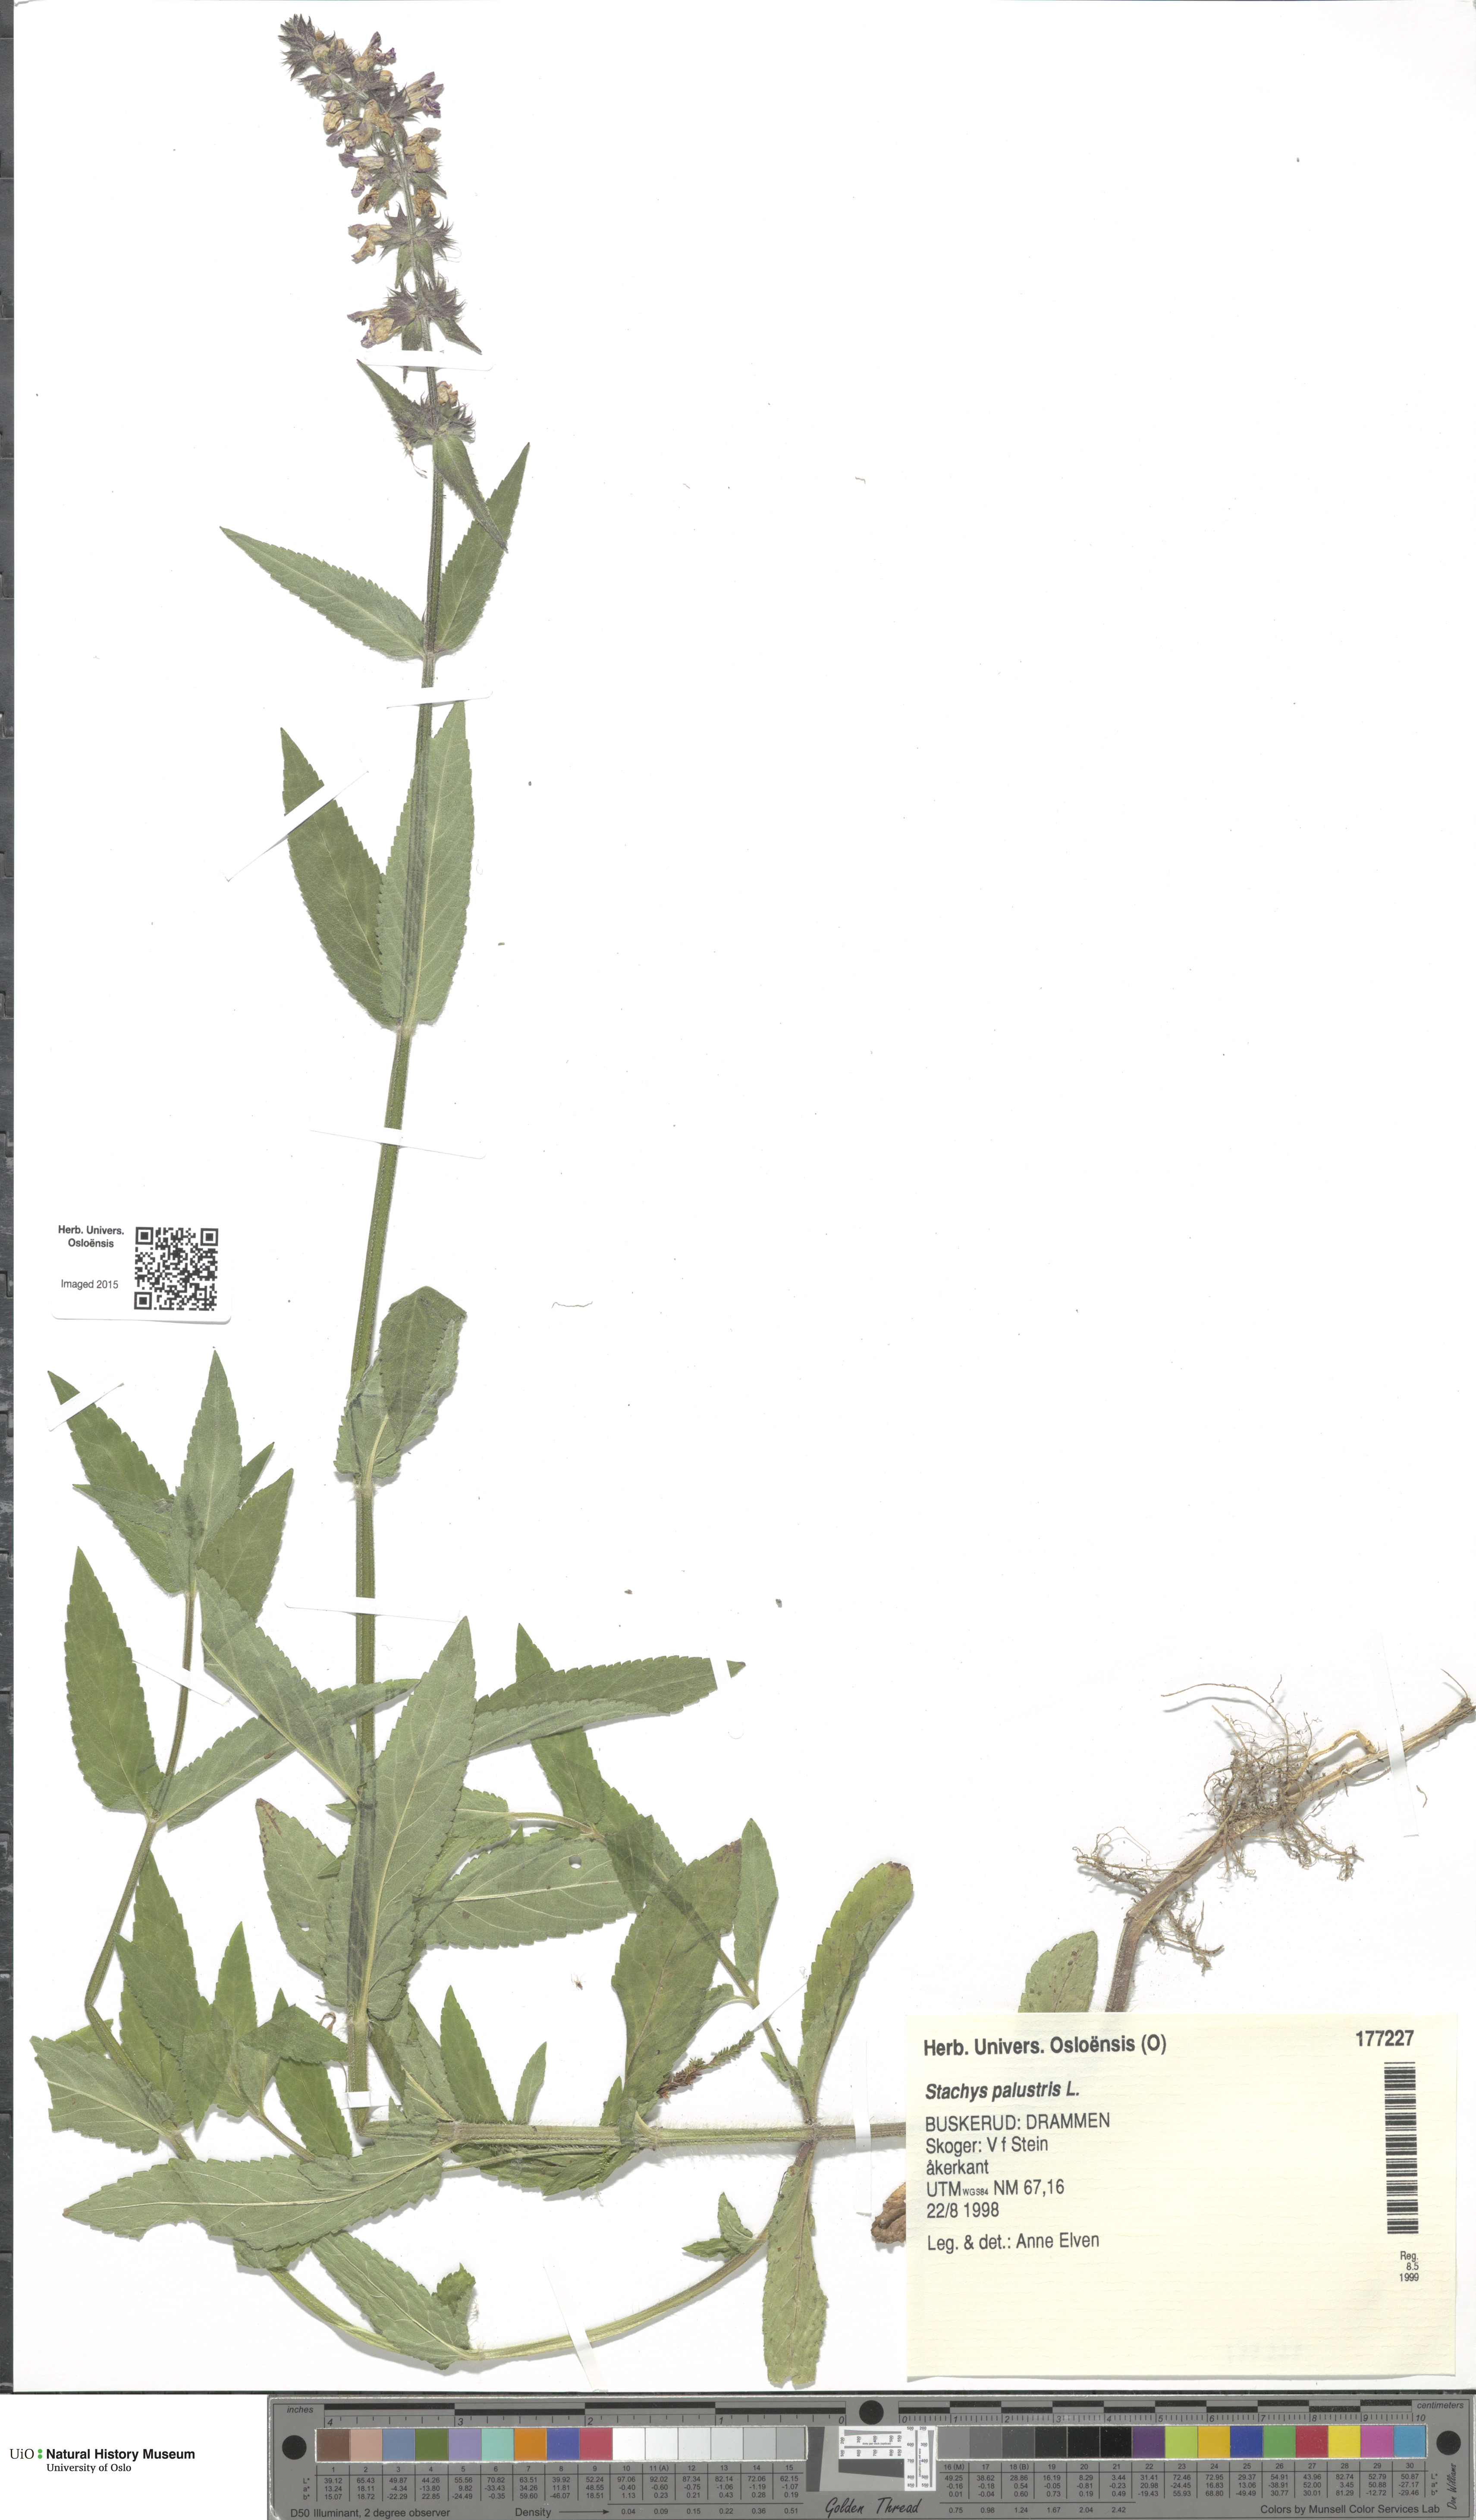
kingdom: Plantae
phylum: Tracheophyta
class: Magnoliopsida
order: Lamiales
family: Lamiaceae
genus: Stachys
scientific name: Stachys palustris
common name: Marsh woundwort
